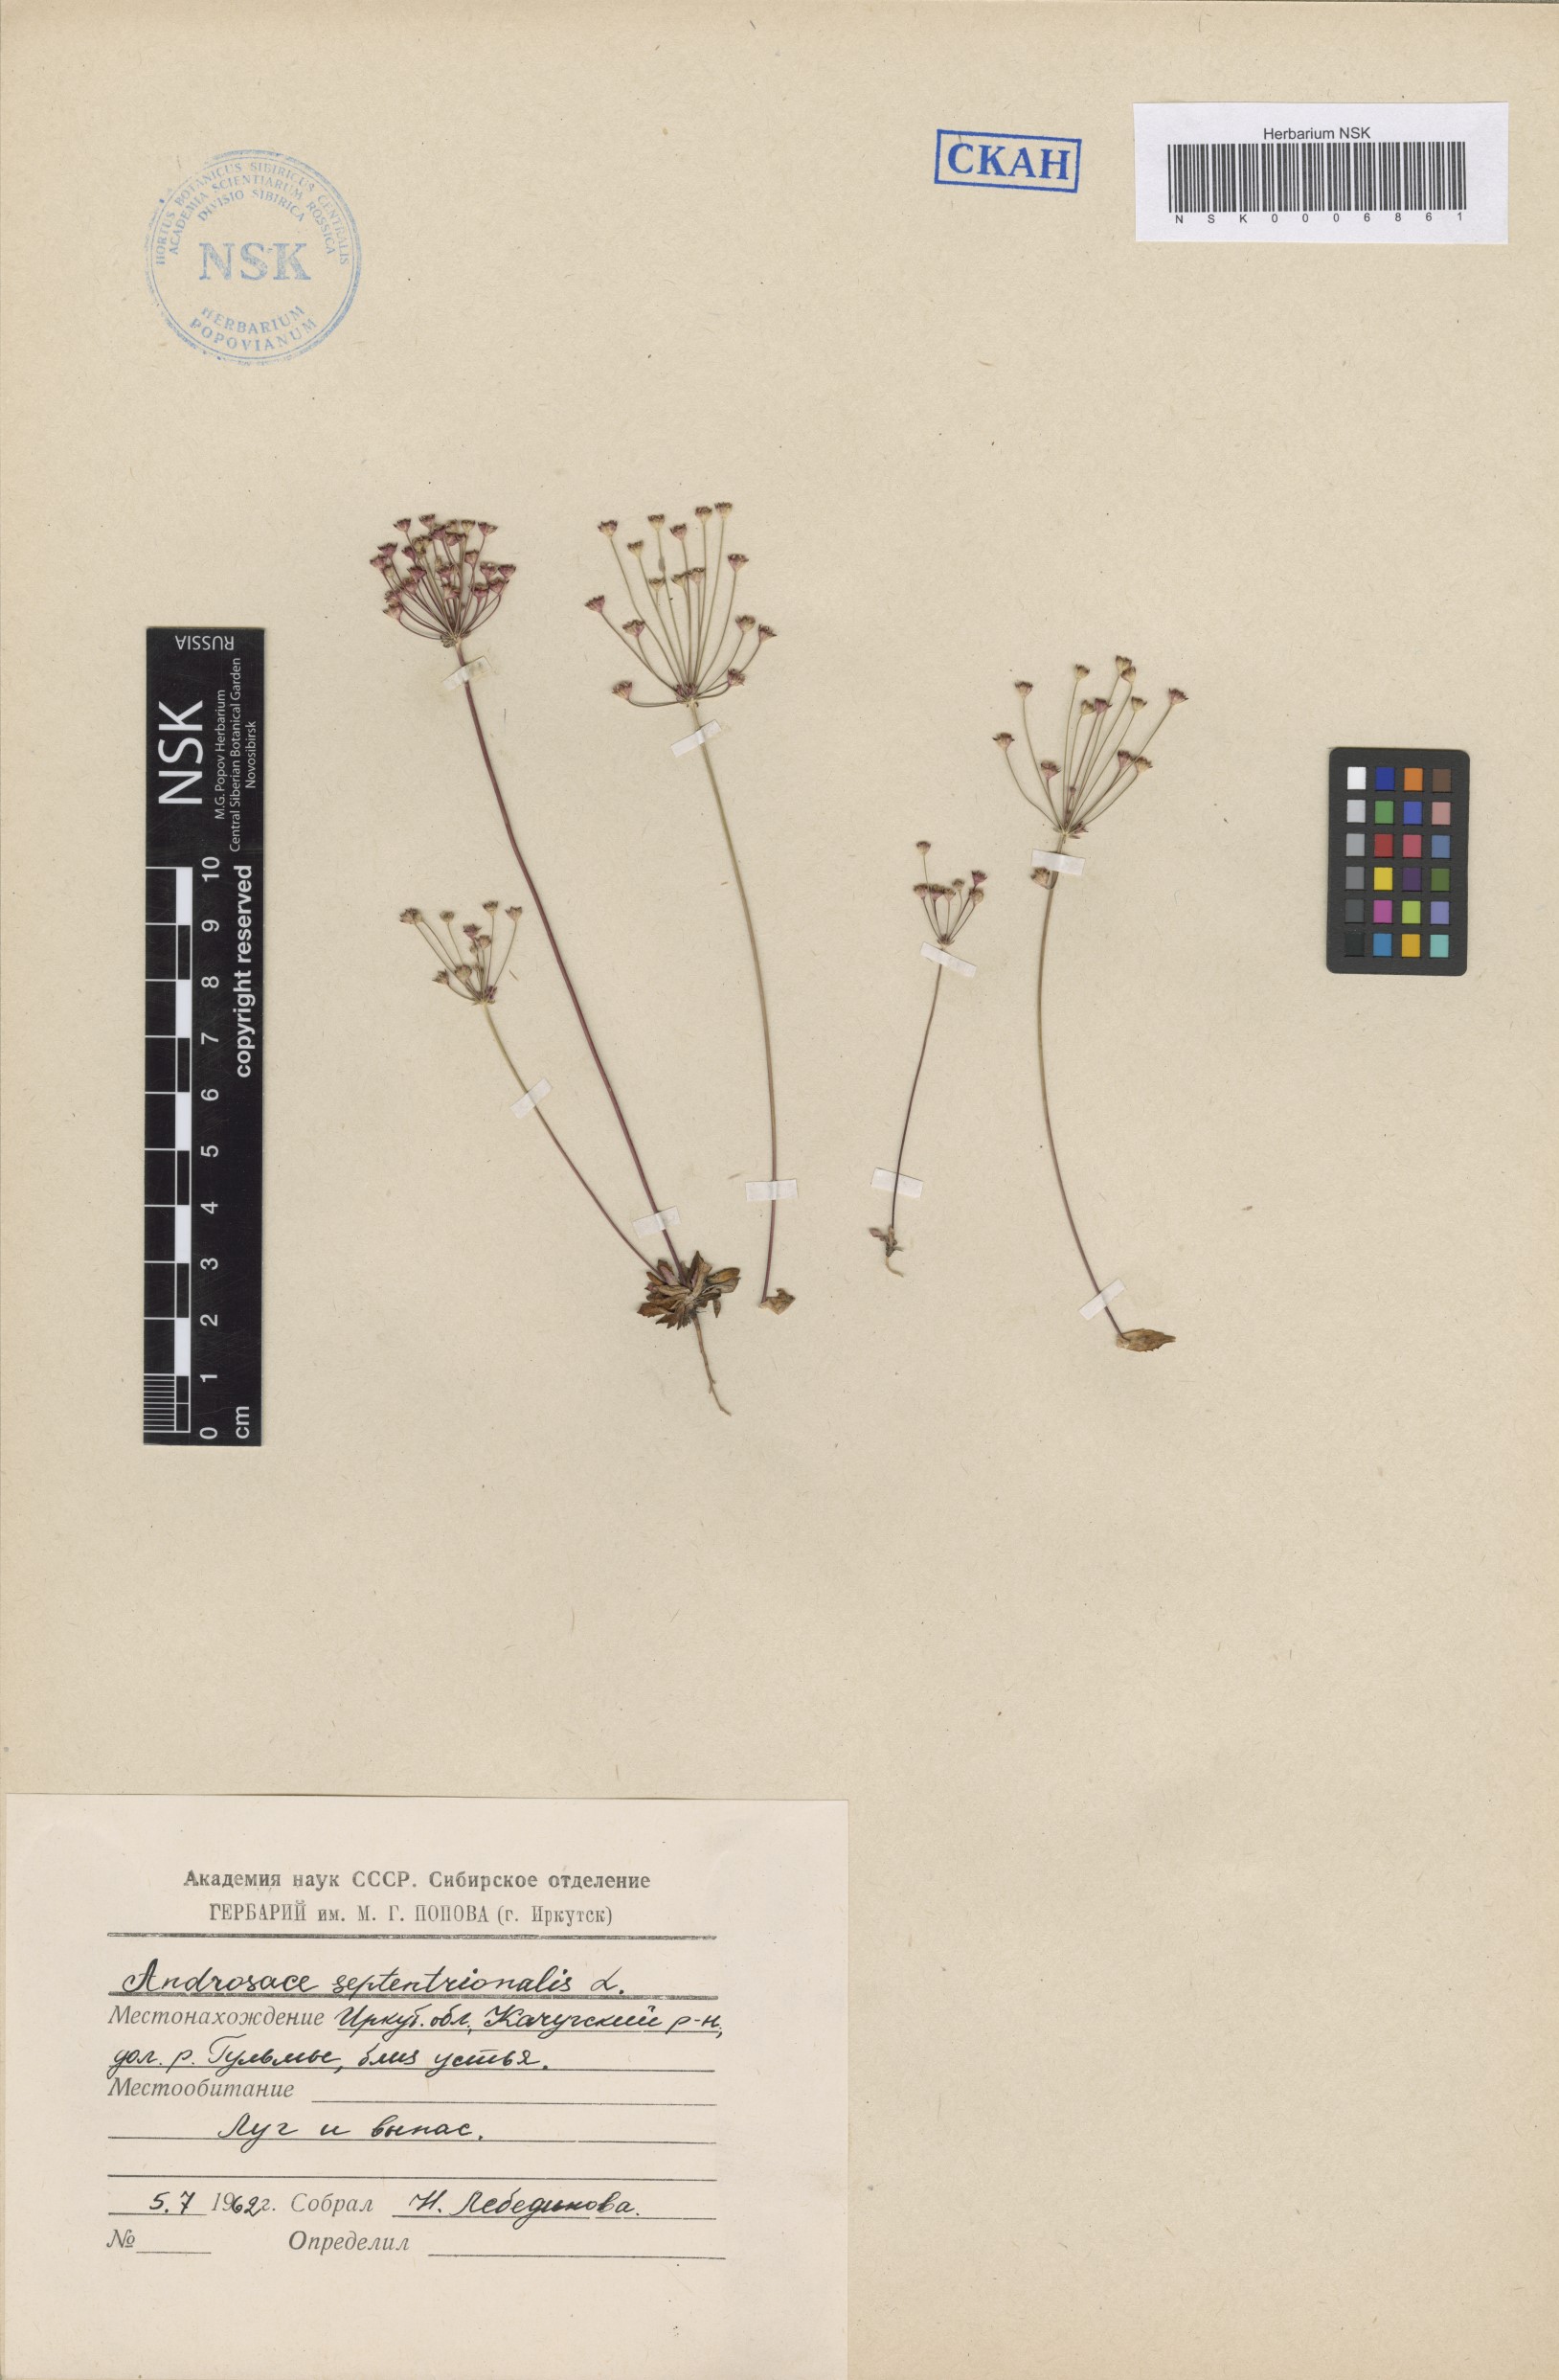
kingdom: Plantae
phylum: Tracheophyta
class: Magnoliopsida
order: Ericales
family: Primulaceae
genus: Androsace
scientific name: Androsace septentrionalis
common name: Hairy northern fairy-candelabra
